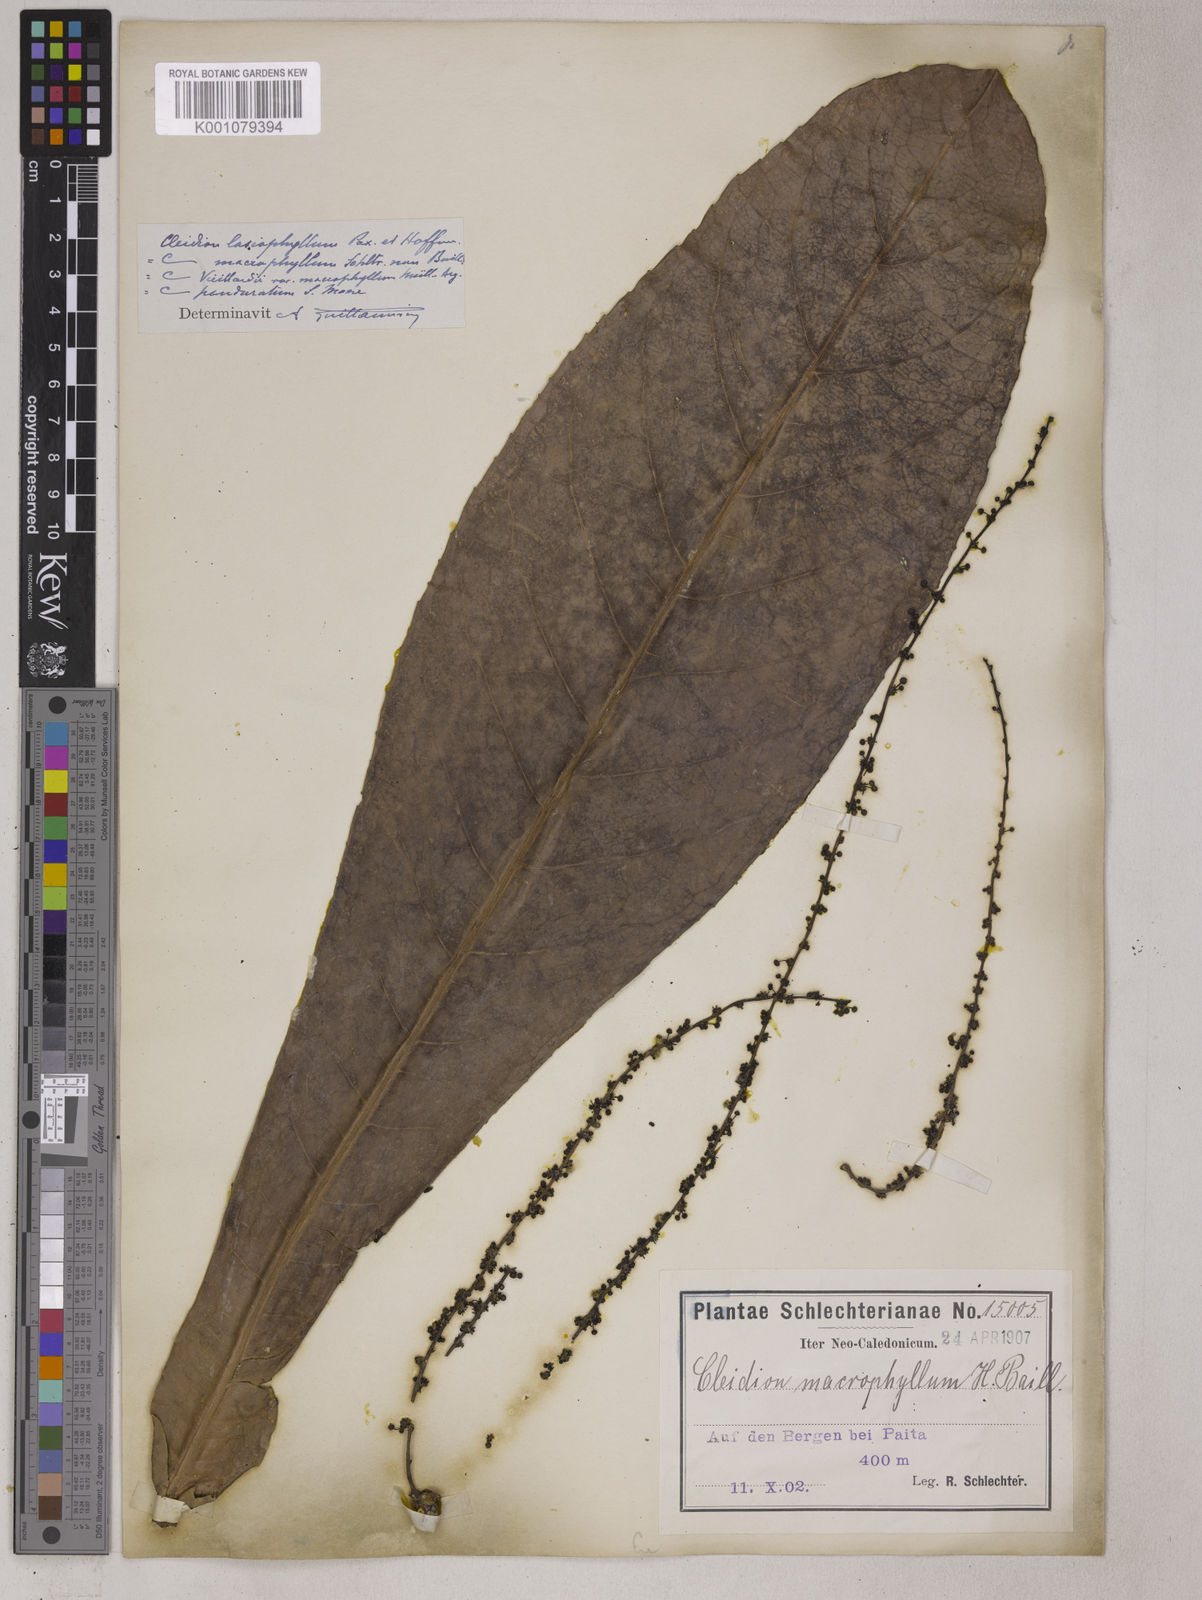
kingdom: Plantae
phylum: Tracheophyta
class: Magnoliopsida
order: Malpighiales
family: Euphorbiaceae
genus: Cleidion
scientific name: Cleidion lasiophyllum
